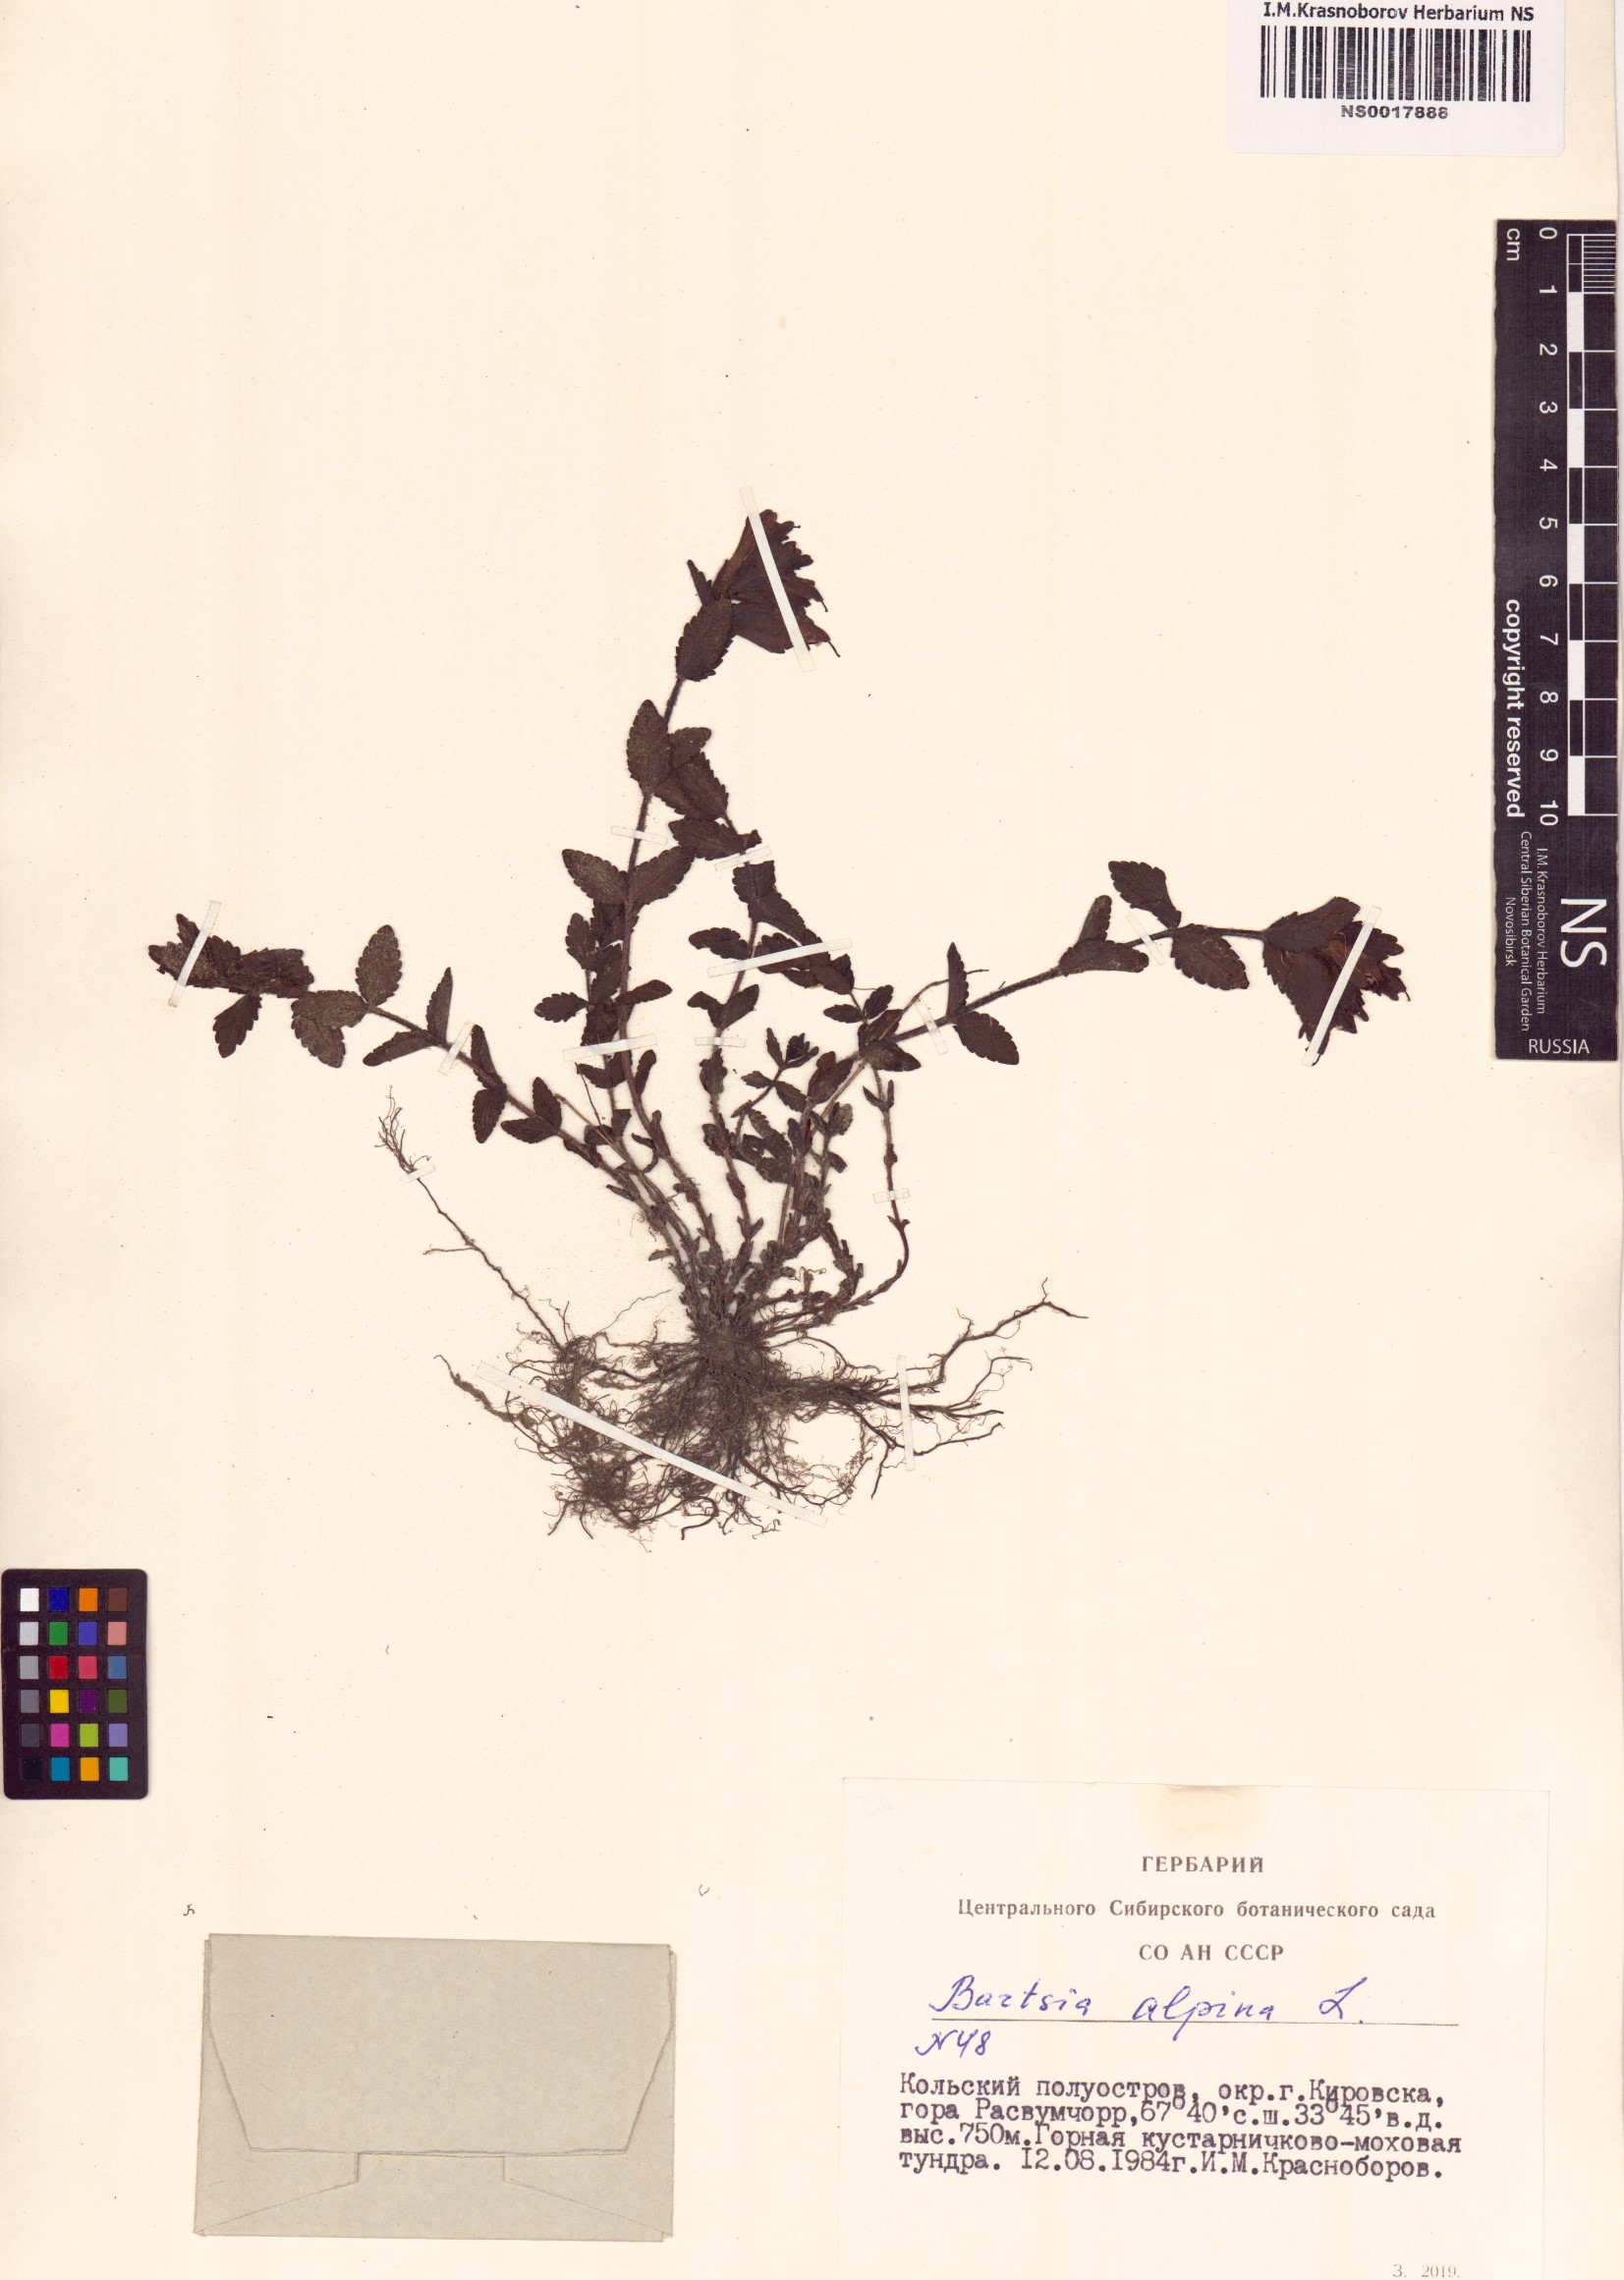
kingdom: Plantae
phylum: Tracheophyta
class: Magnoliopsida
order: Lamiales
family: Orobanchaceae
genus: Bartsia
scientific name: Bartsia alpina
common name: Alpine bartsia
